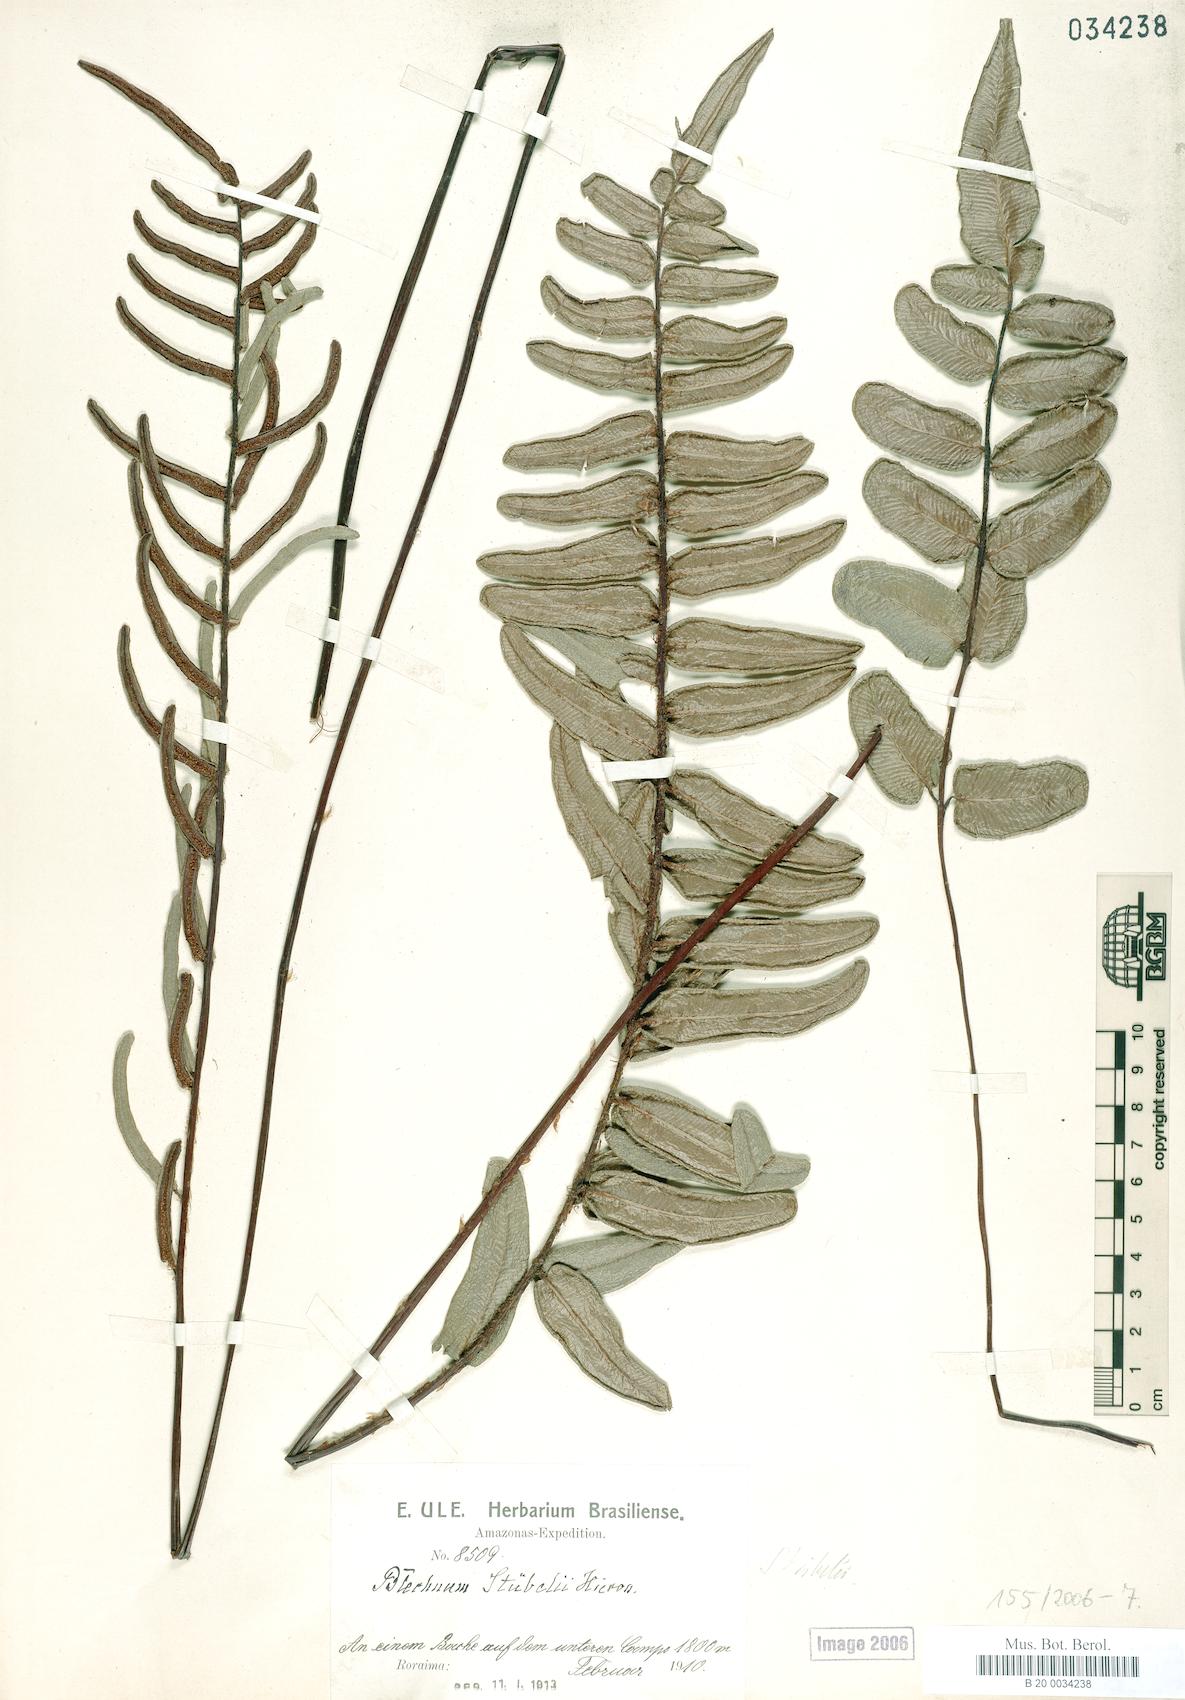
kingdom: Plantae
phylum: Tracheophyta
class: Polypodiopsida
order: Polypodiales
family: Blechnaceae
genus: Parablechnum
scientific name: Parablechnum
